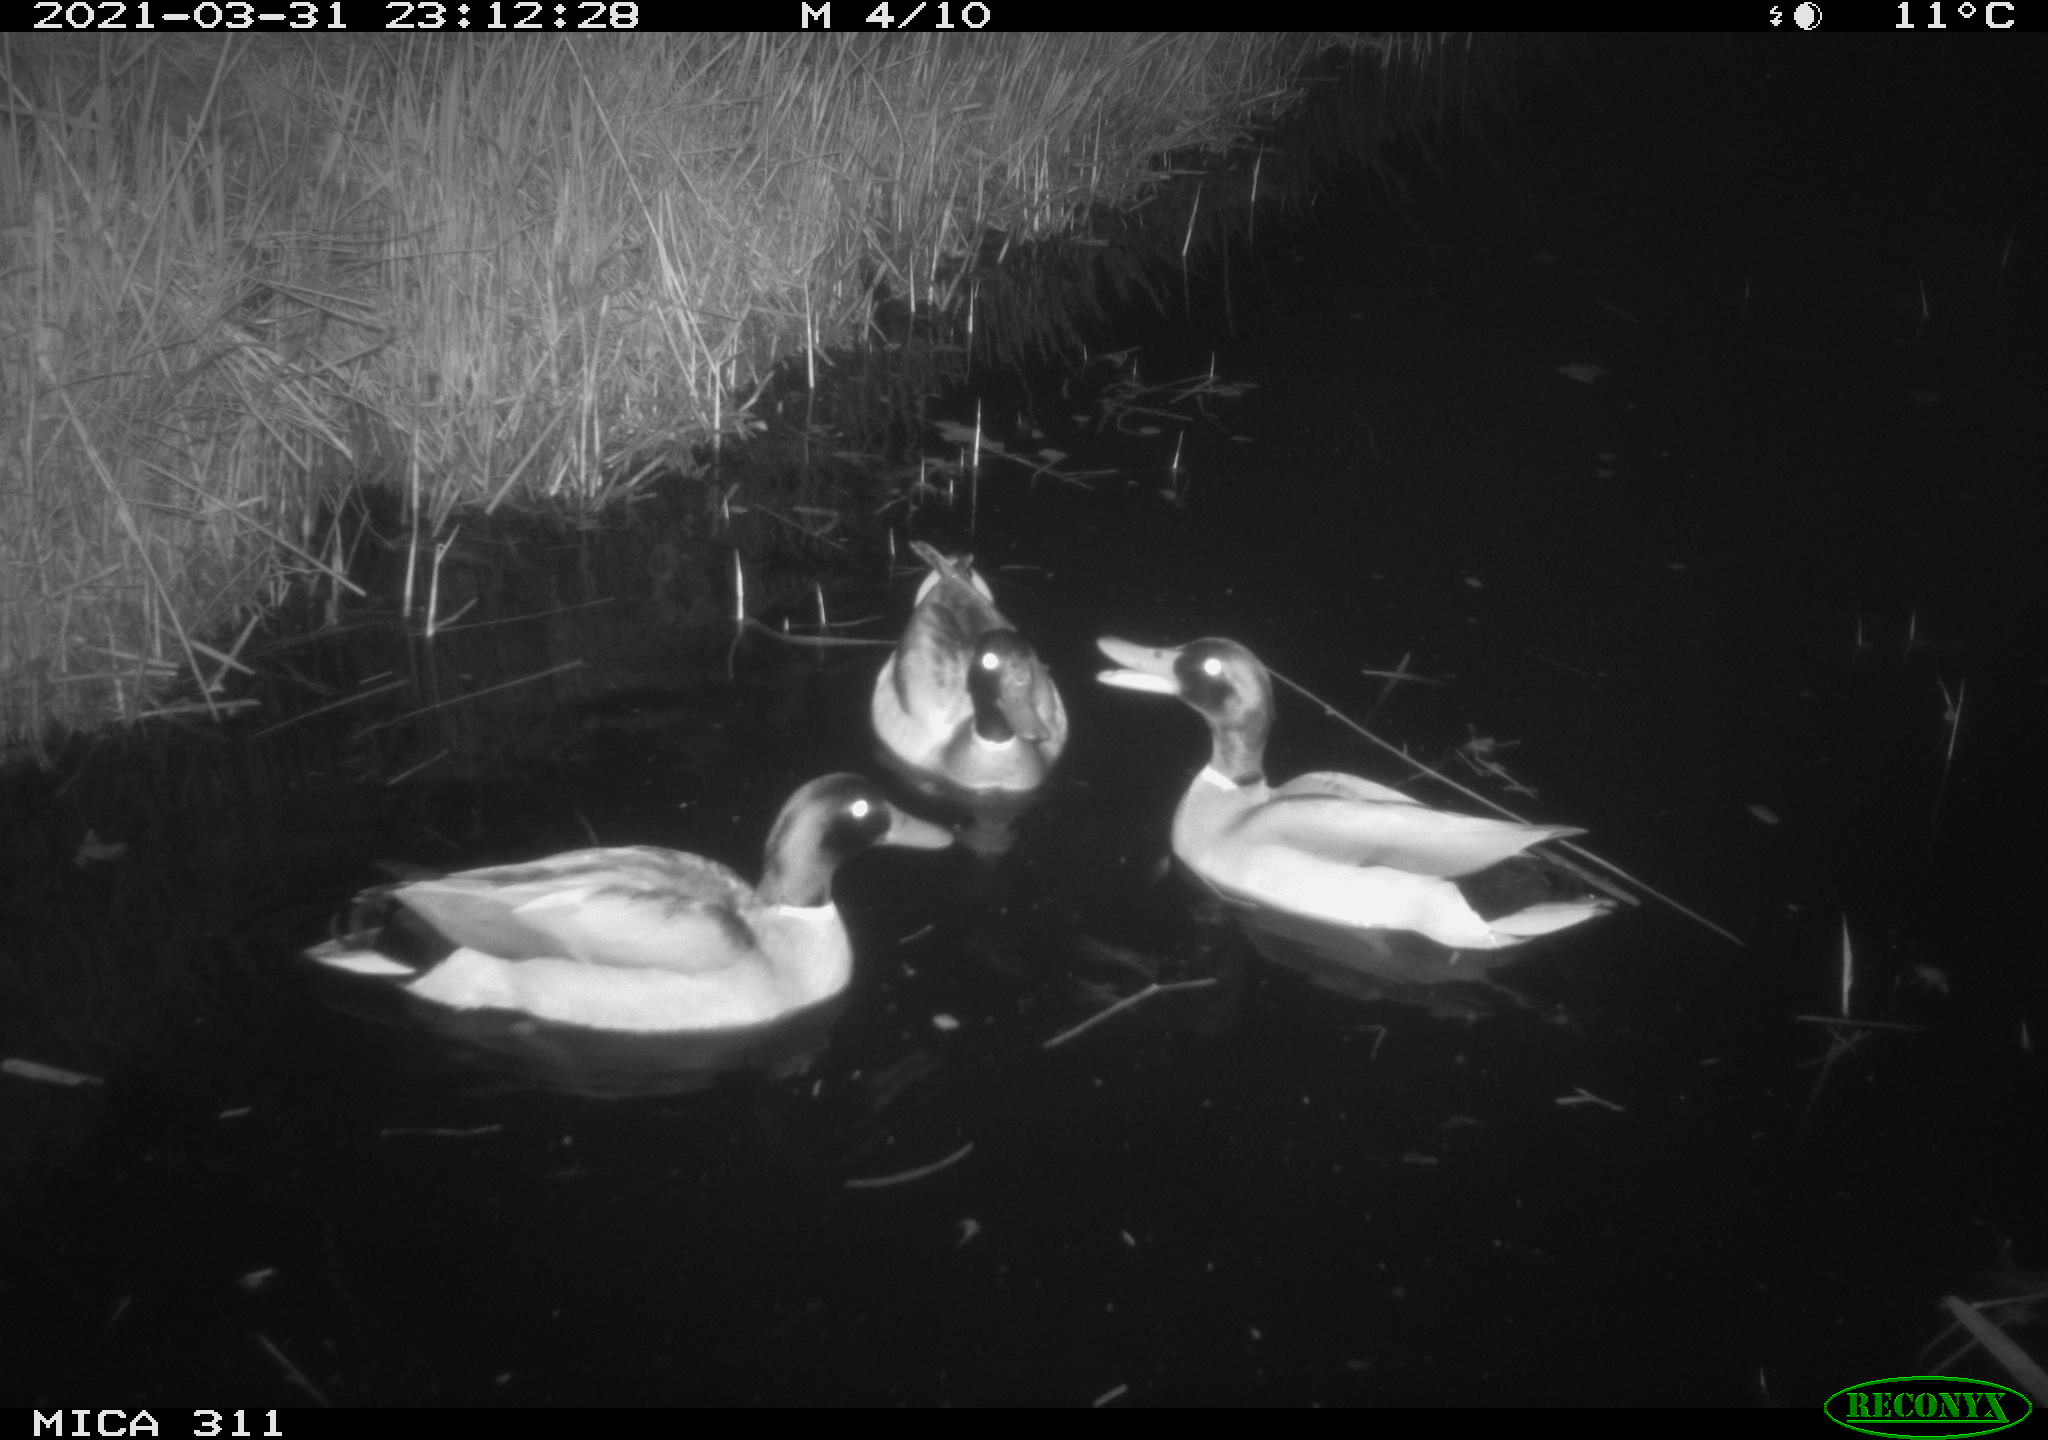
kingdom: Animalia
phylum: Chordata
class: Aves
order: Anseriformes
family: Anatidae
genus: Anas
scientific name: Anas
